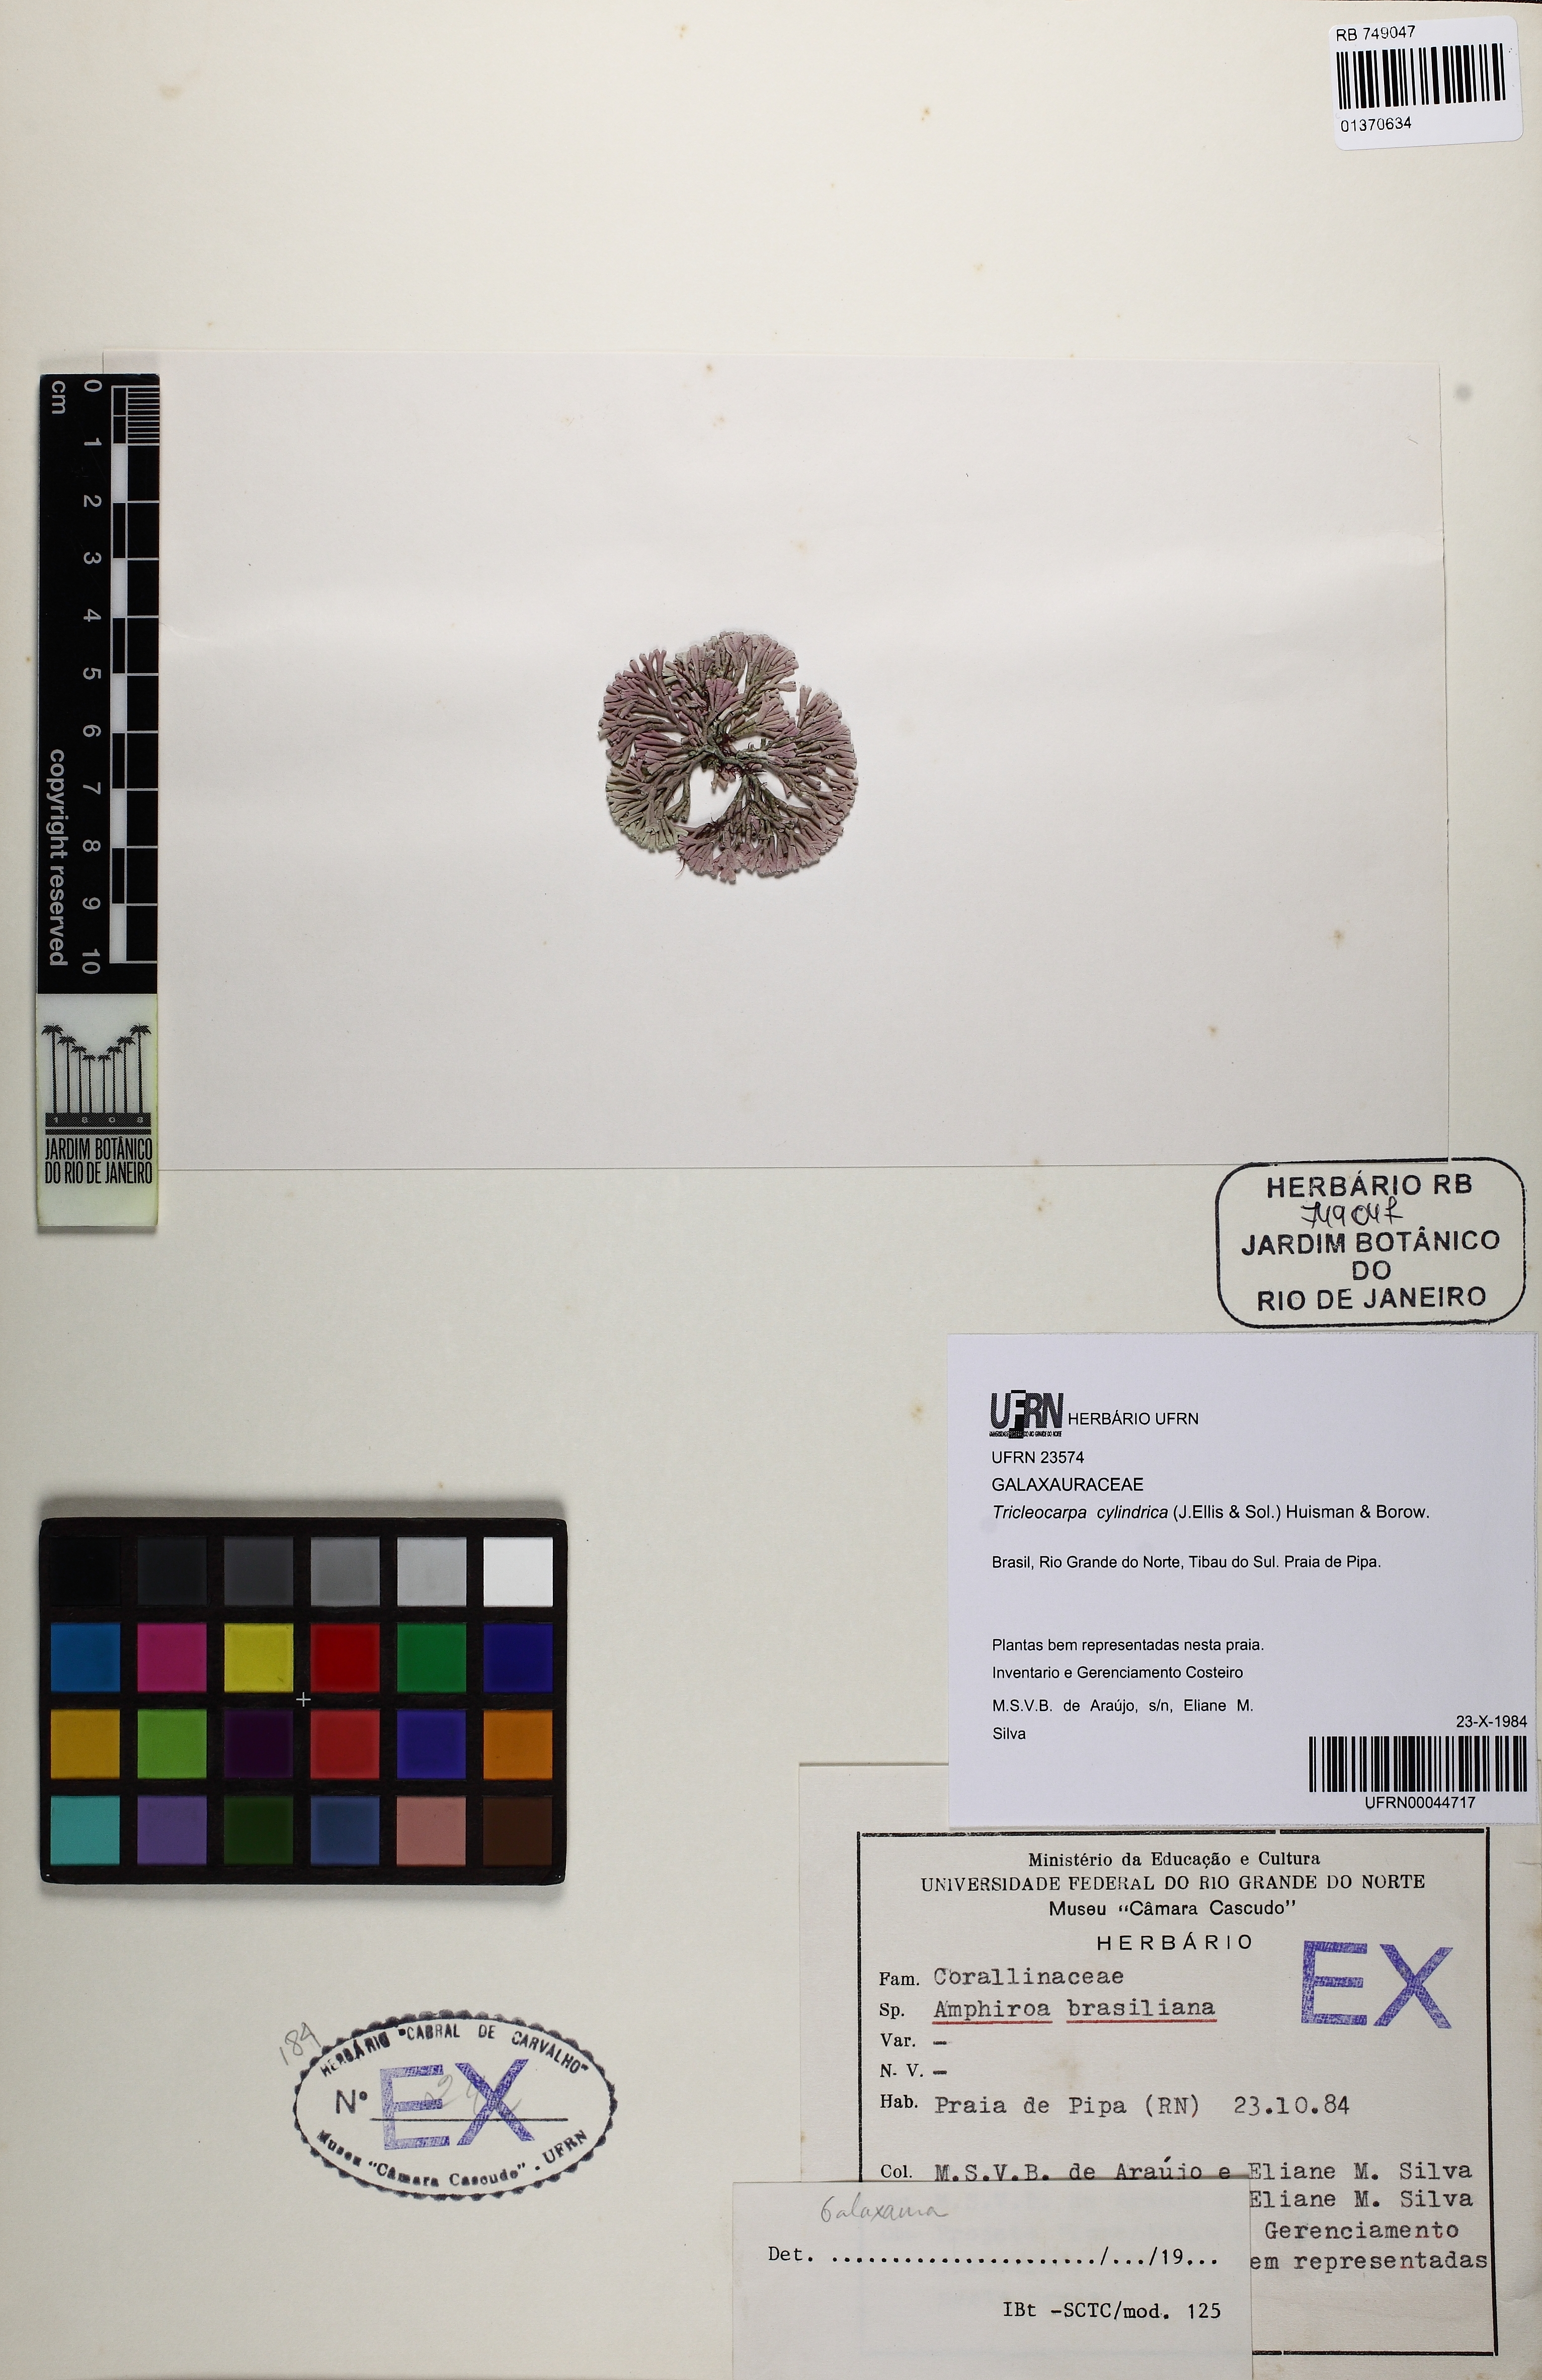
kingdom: Plantae
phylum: Rhodophyta
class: Florideophyceae
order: Nemaliales
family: Galaxauraceae
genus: Tricleocarpa
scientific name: Tricleocarpa cylindrica
